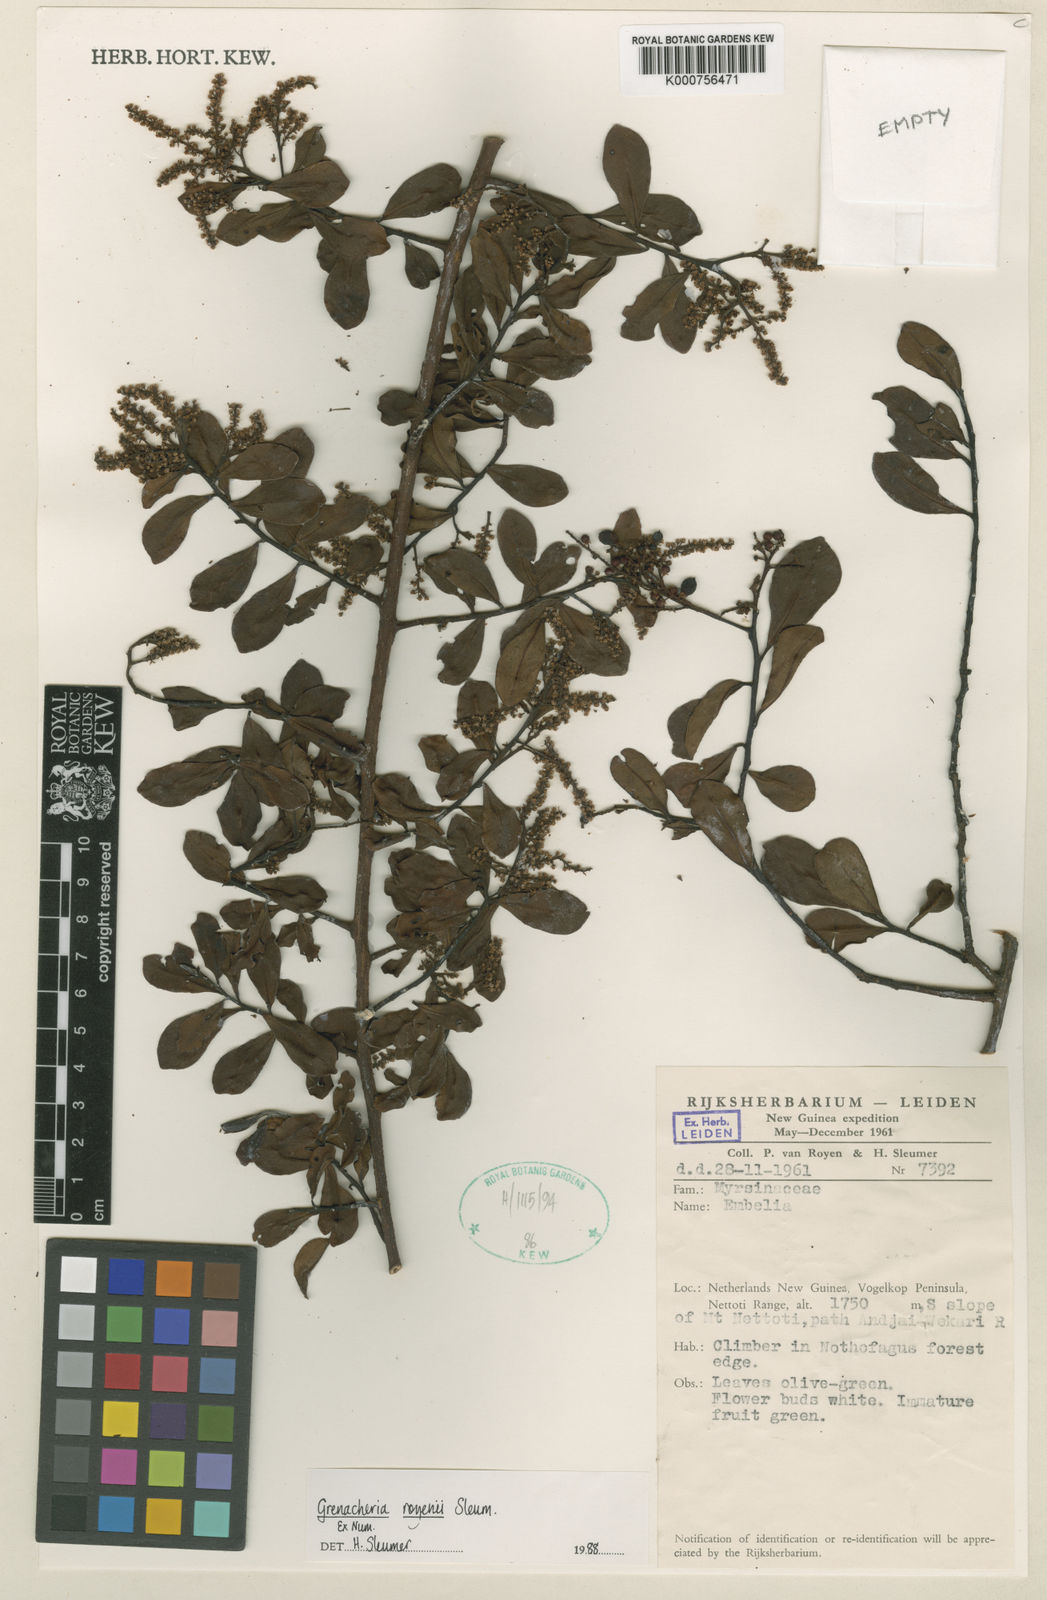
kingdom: Plantae
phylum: Tracheophyta
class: Magnoliopsida
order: Ericales
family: Primulaceae
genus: Grenacheria
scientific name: Grenacheria royenii
